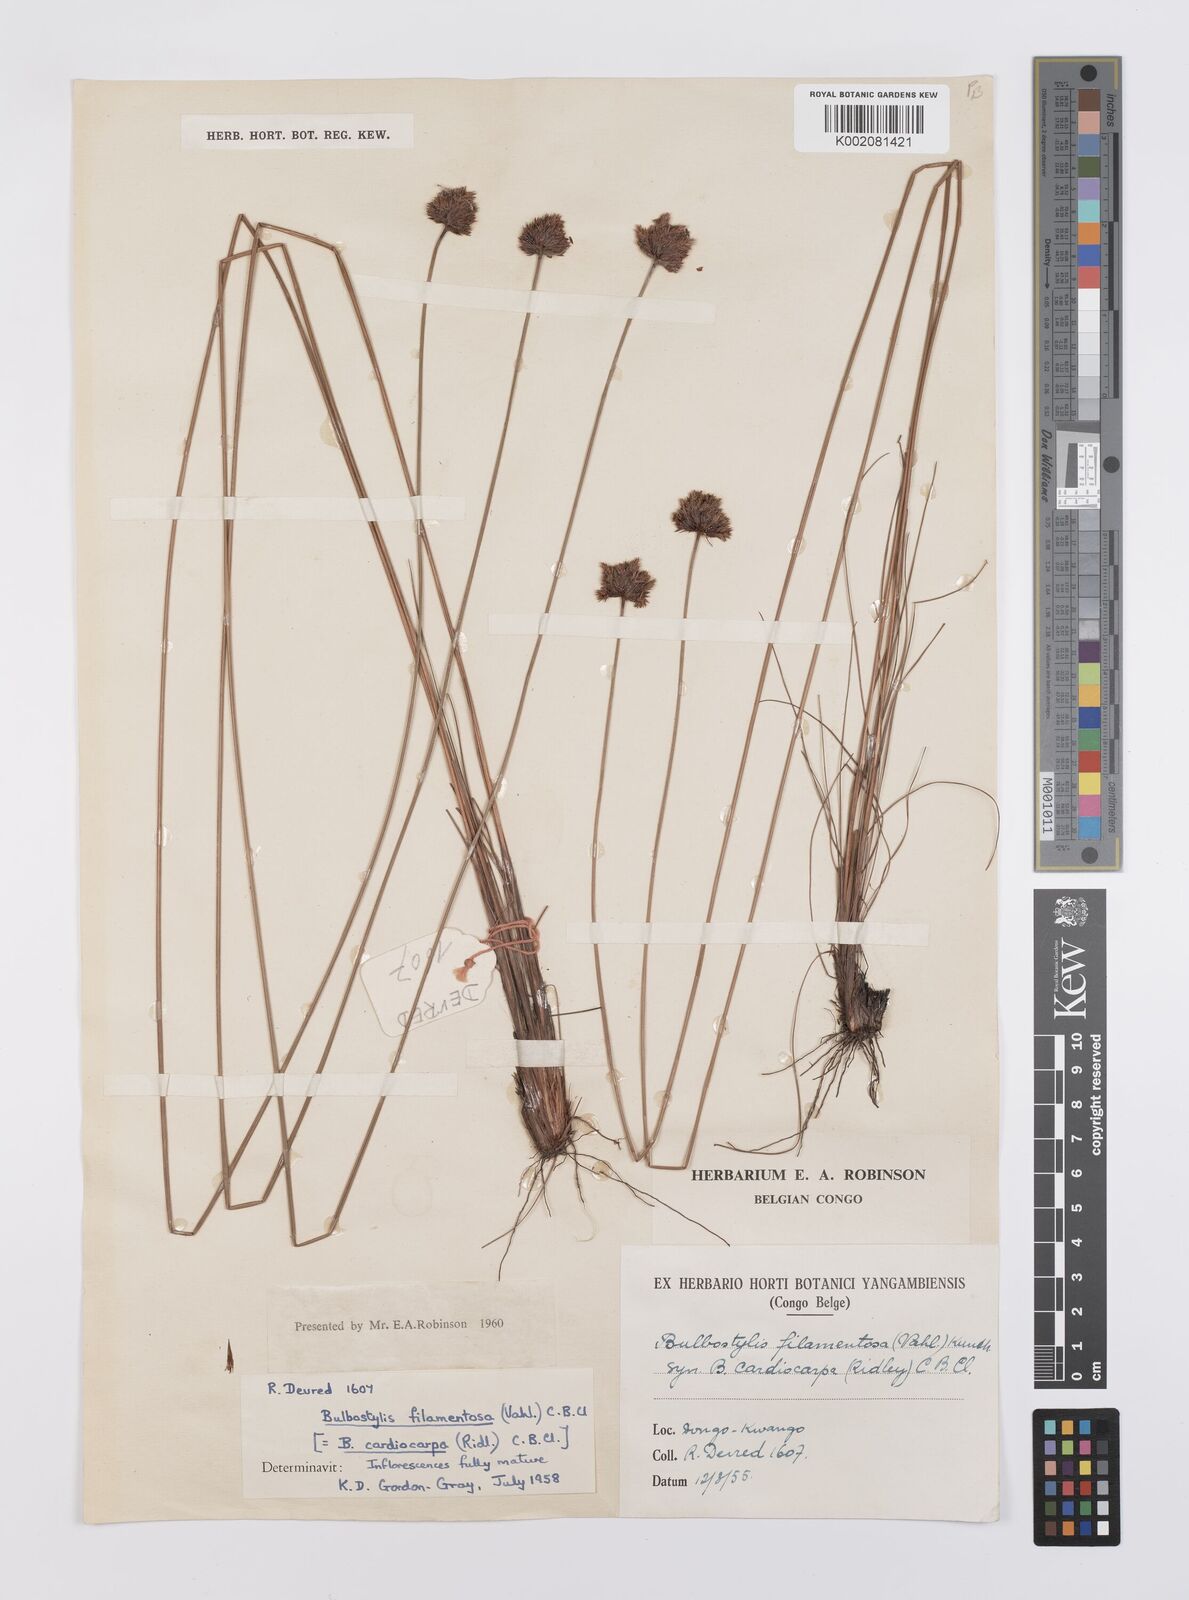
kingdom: Plantae
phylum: Tracheophyta
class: Liliopsida
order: Poales
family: Cyperaceae
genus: Bulbostylis
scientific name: Bulbostylis filamentosa
